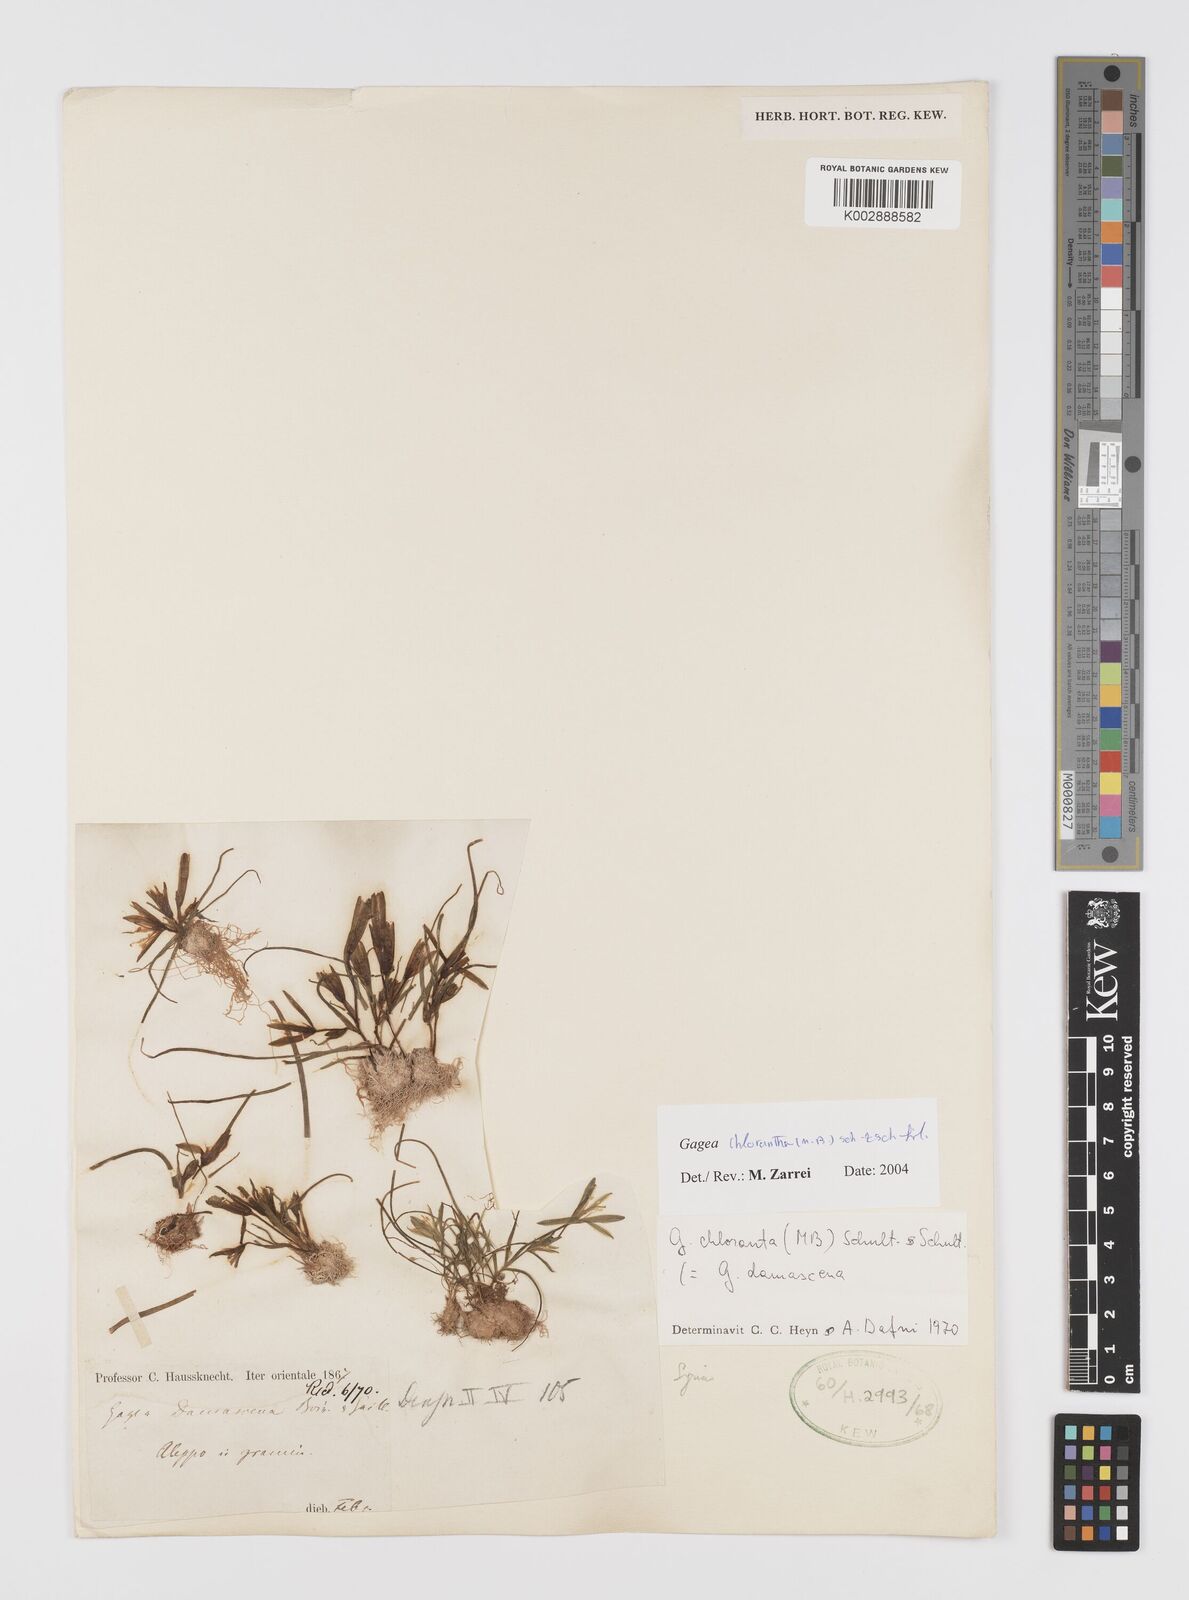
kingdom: Plantae
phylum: Tracheophyta
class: Liliopsida
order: Liliales
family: Liliaceae
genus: Gagea
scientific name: Gagea chlorantha
